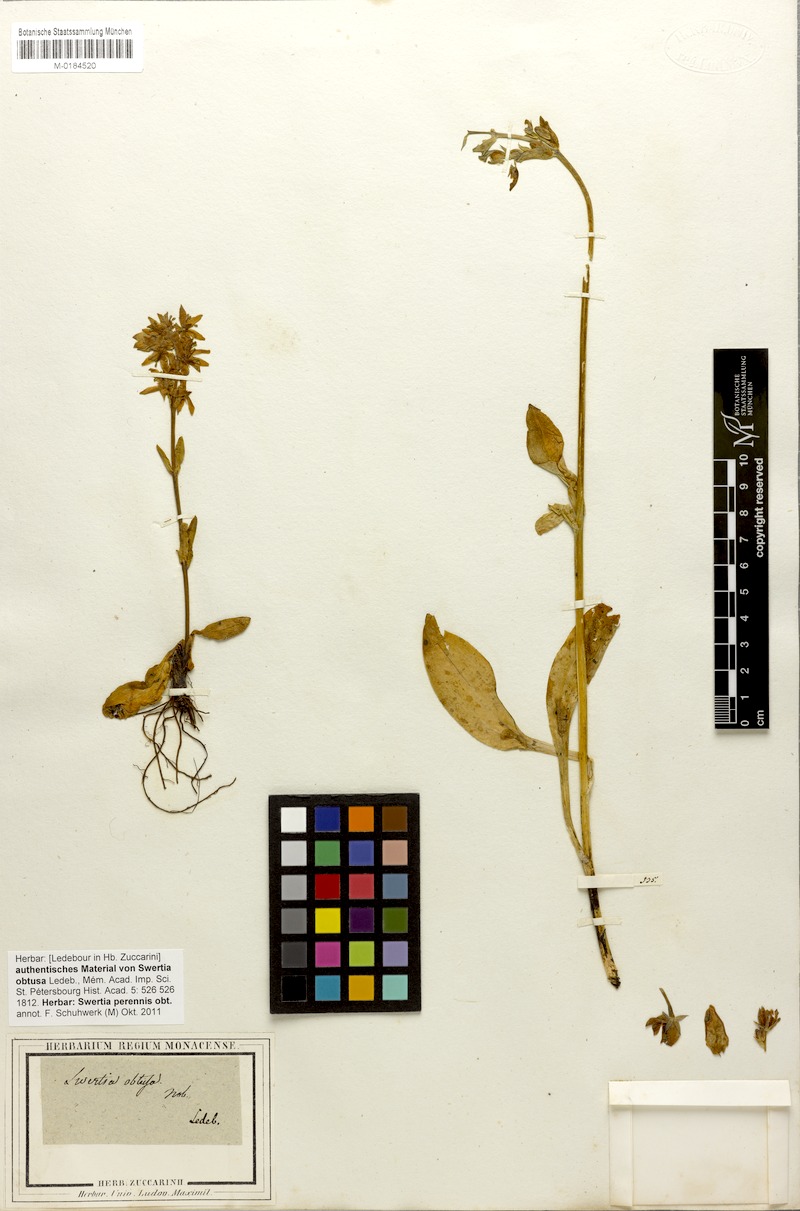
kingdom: Plantae
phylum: Tracheophyta
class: Magnoliopsida
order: Gentianales
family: Gentianaceae
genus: Swertia
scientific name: Swertia obtusa
